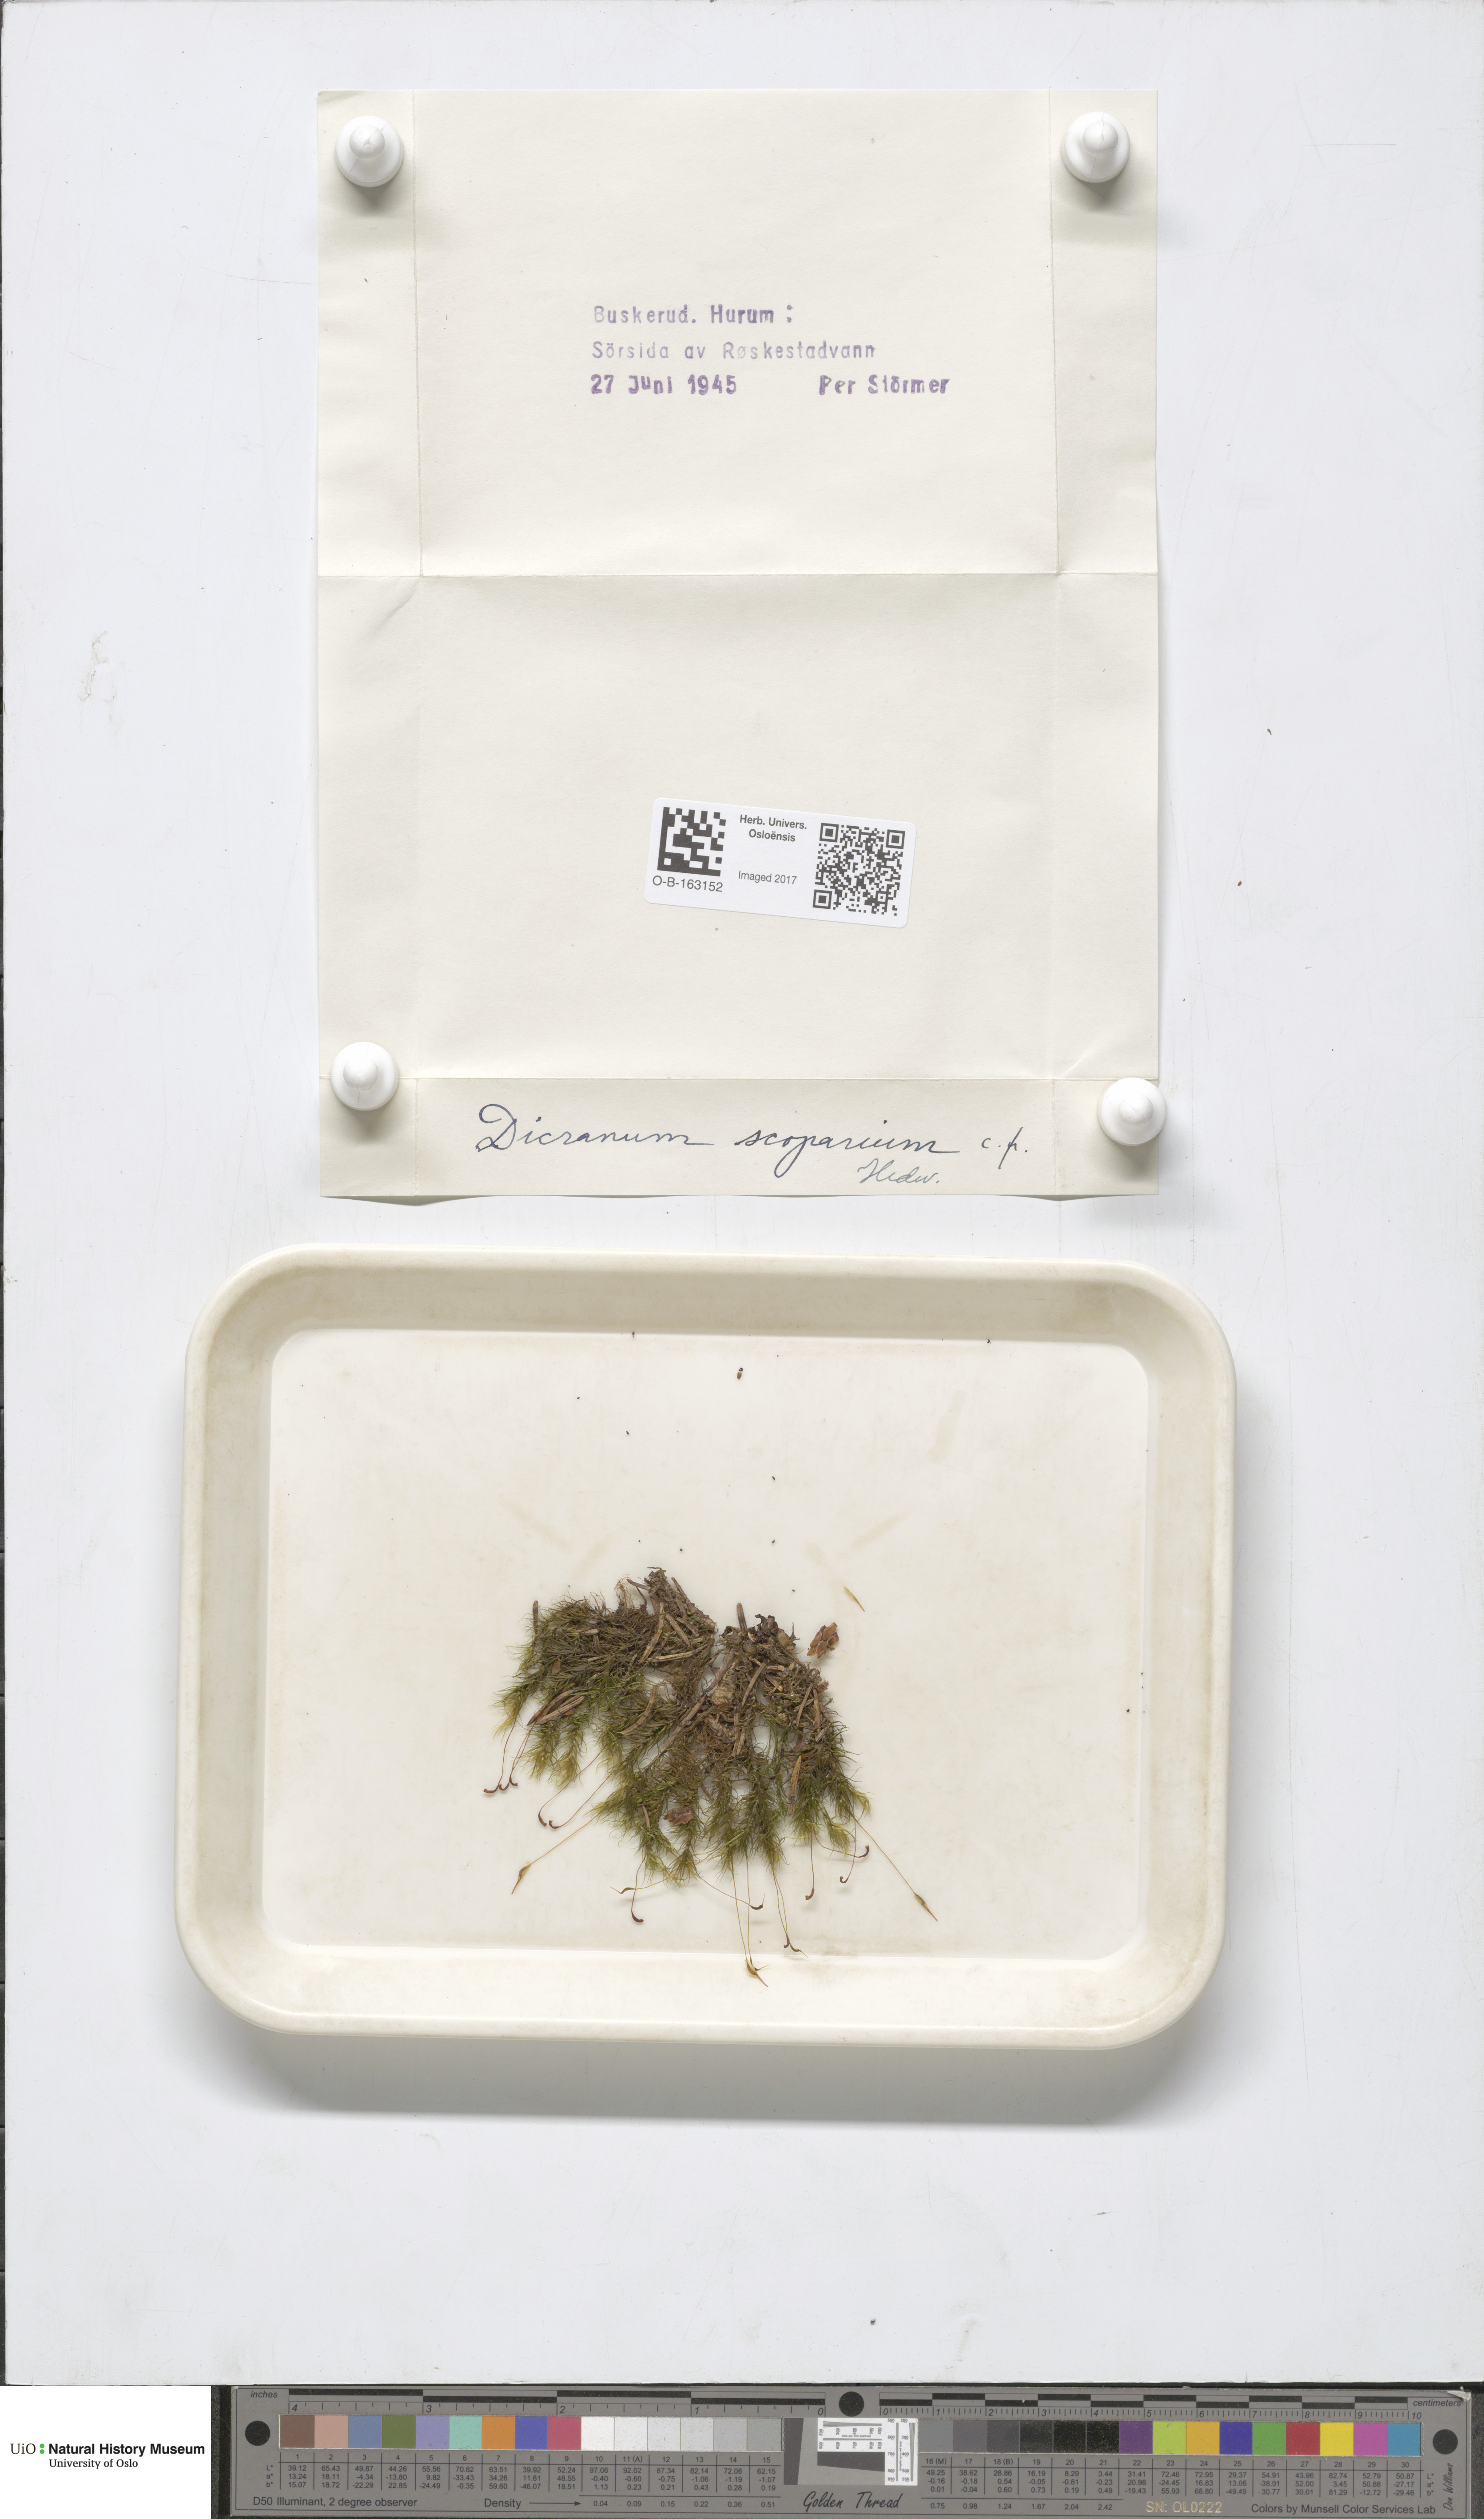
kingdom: Plantae
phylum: Bryophyta
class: Bryopsida
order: Dicranales
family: Dicranaceae
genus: Dicranum
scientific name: Dicranum scoparium
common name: Broom fork-moss
